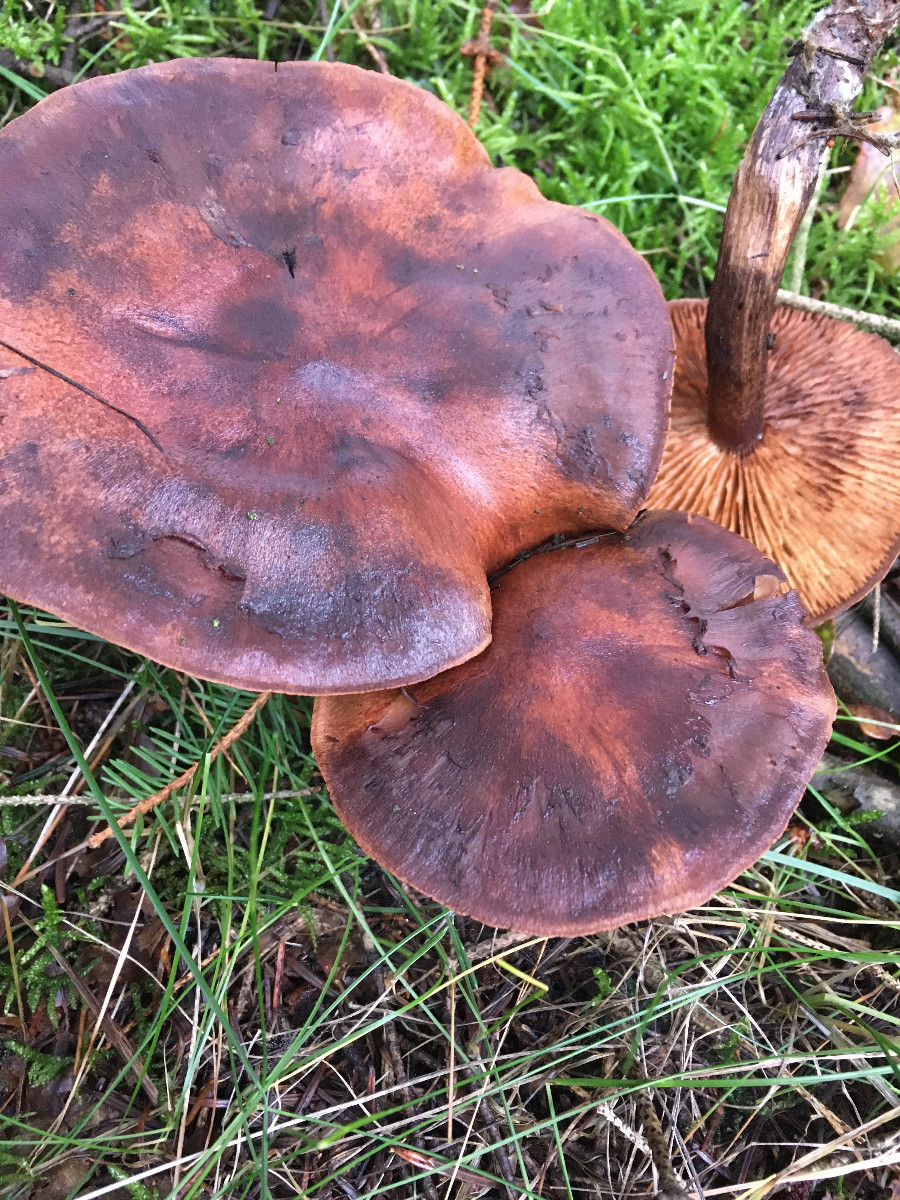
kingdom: Fungi
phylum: Basidiomycota
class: Agaricomycetes
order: Agaricales
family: Tricholomataceae
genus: Tricholoma
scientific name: Tricholoma
